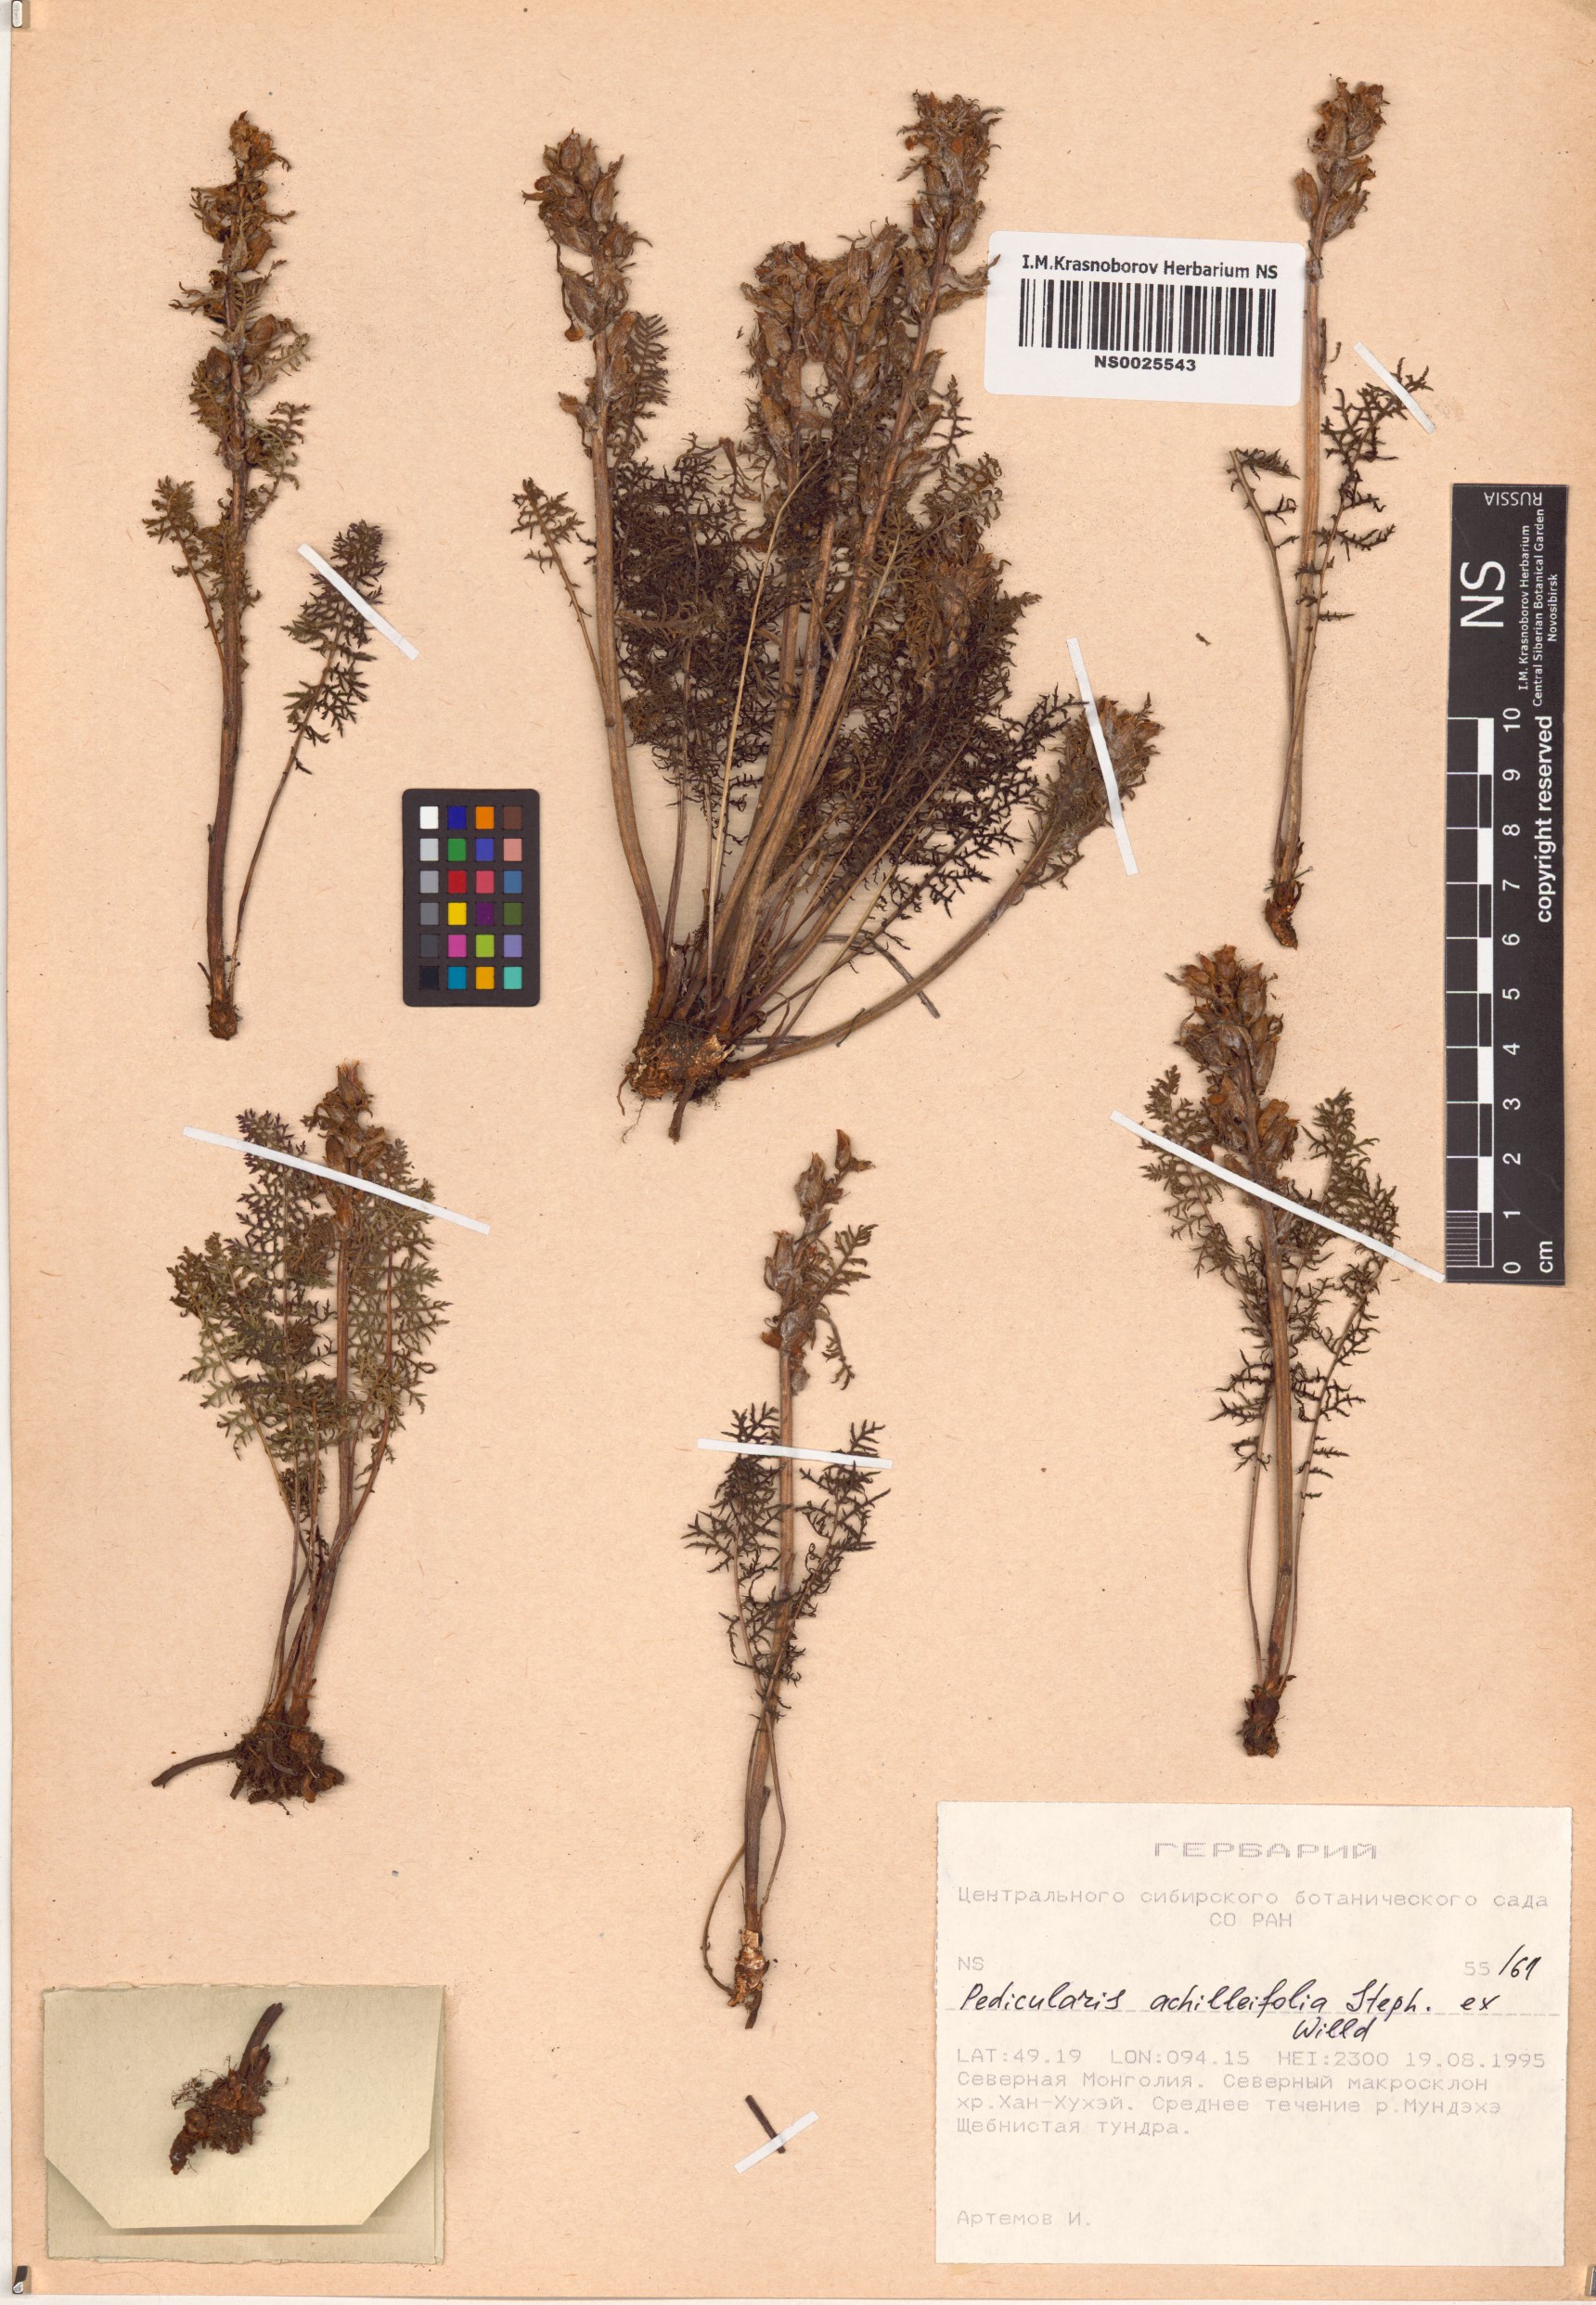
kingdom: Plantae
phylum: Tracheophyta
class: Magnoliopsida
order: Lamiales
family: Orobanchaceae
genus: Pedicularis
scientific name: Pedicularis achilleifolia
